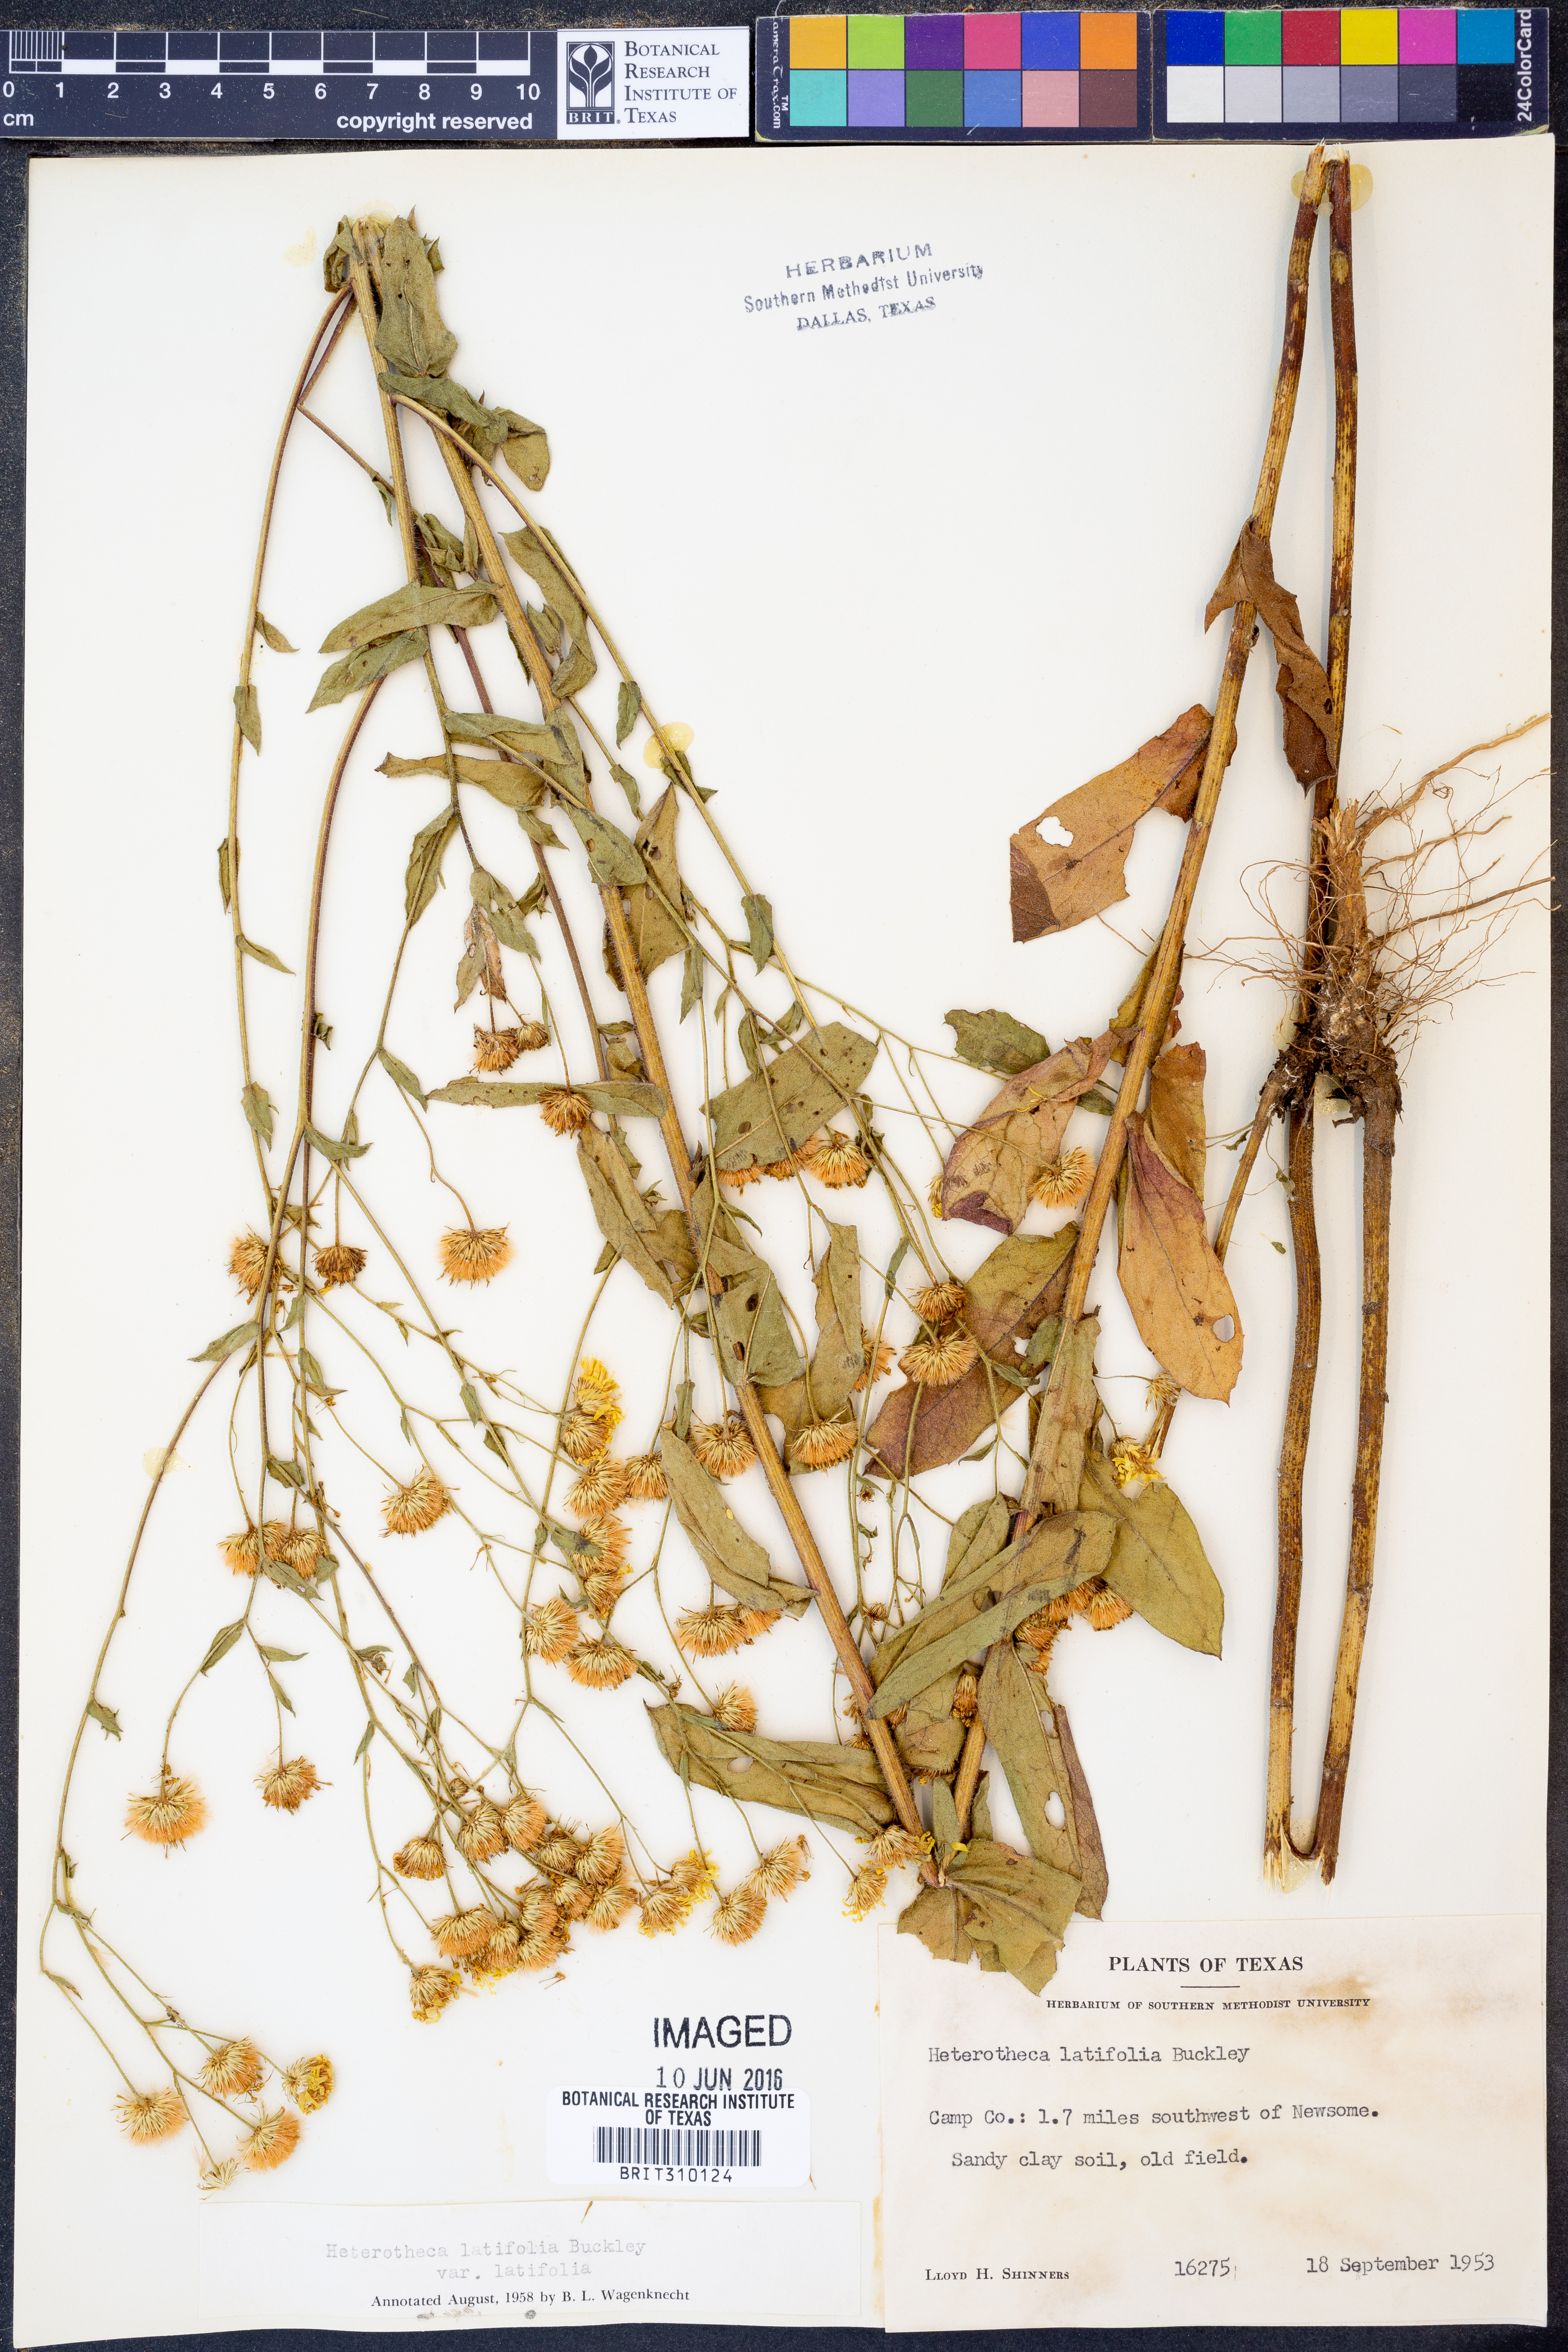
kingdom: Plantae
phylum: Tracheophyta
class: Magnoliopsida
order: Asterales
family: Asteraceae
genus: Heterotheca
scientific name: Heterotheca subaxillaris
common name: Camphorweed
